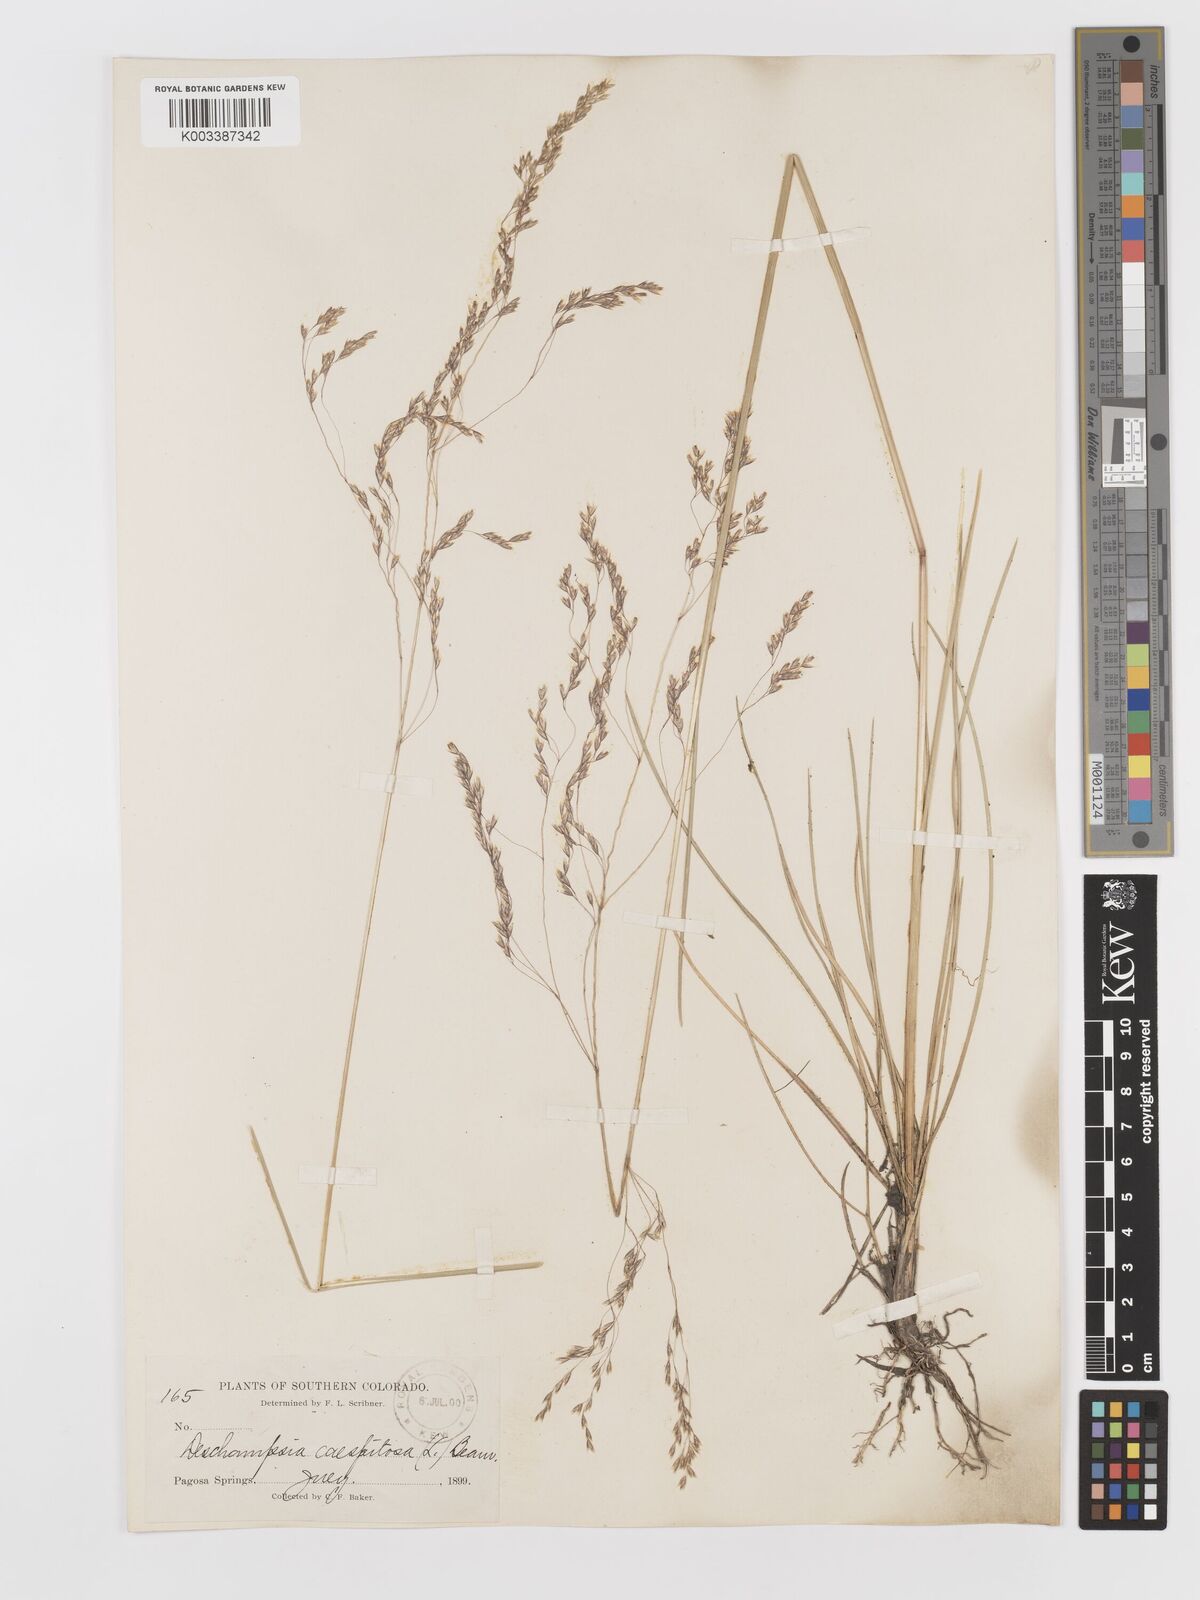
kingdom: Plantae
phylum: Tracheophyta
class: Liliopsida
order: Poales
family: Poaceae
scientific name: Poaceae
